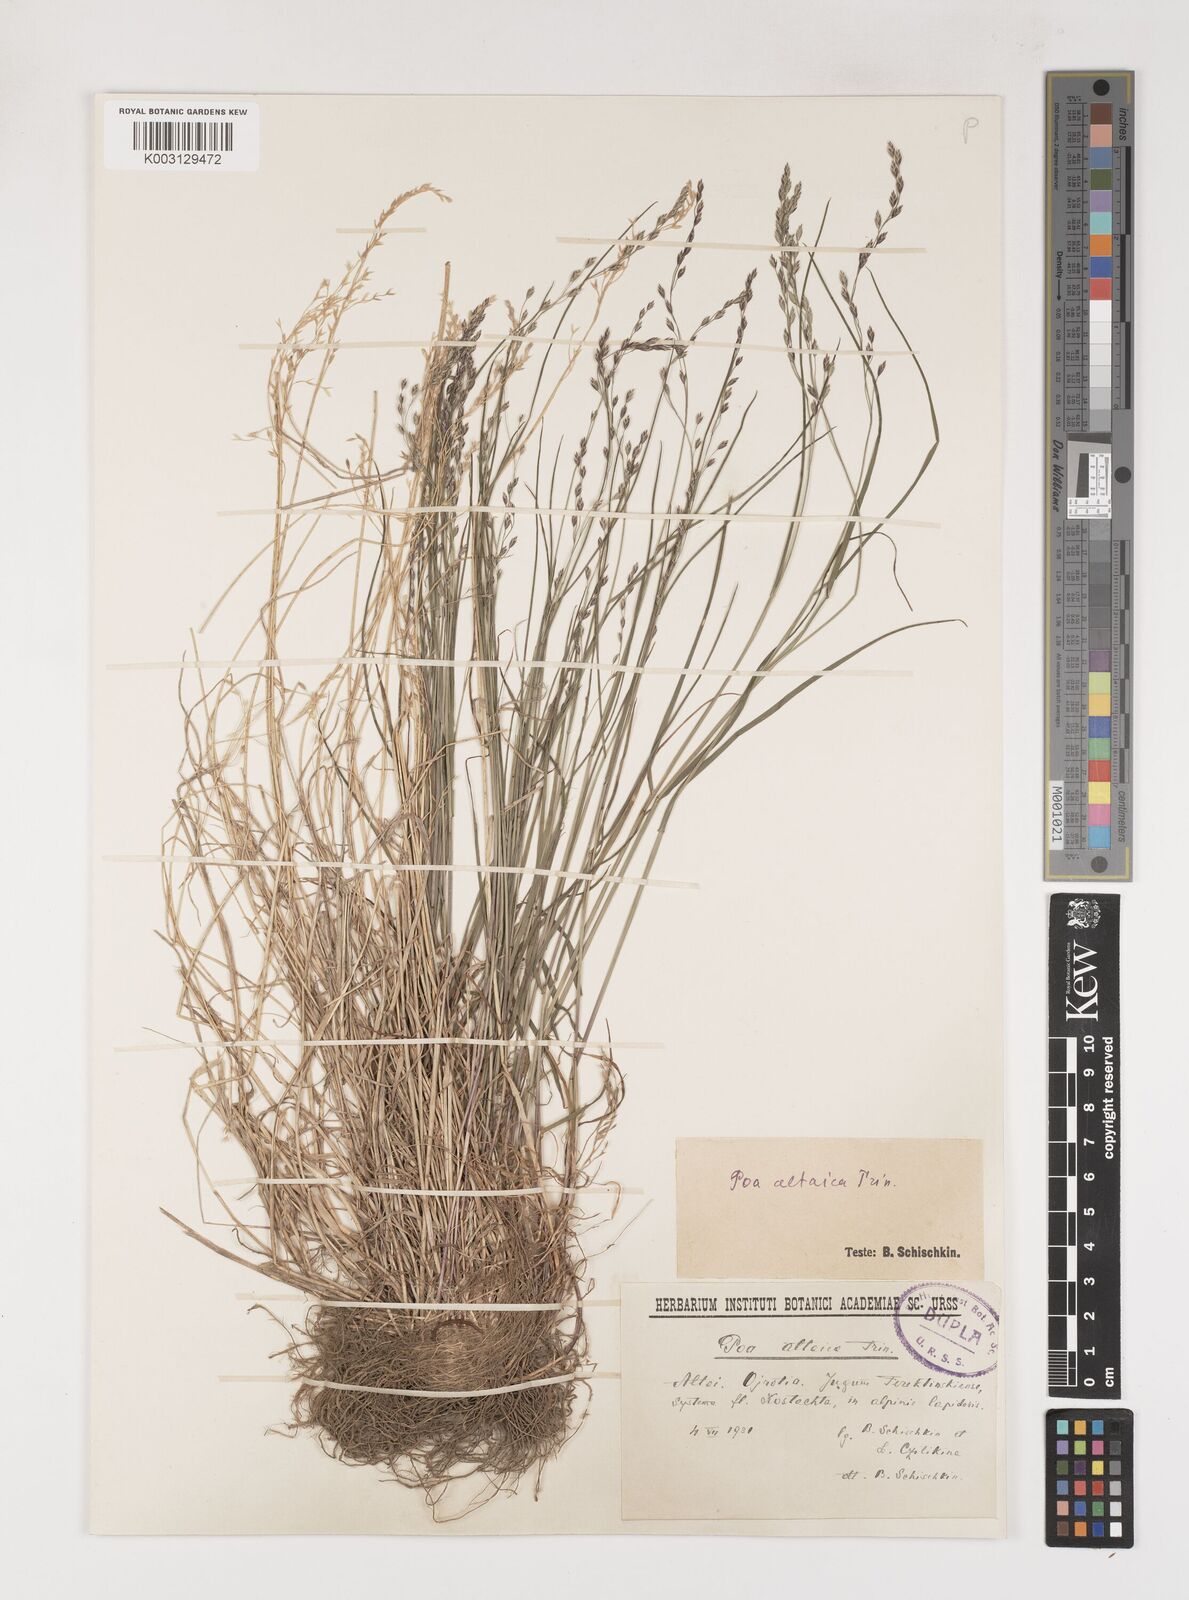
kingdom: Plantae
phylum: Tracheophyta
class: Liliopsida
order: Poales
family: Poaceae
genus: Poa
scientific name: Poa glauca
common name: Glaucous bluegrass
